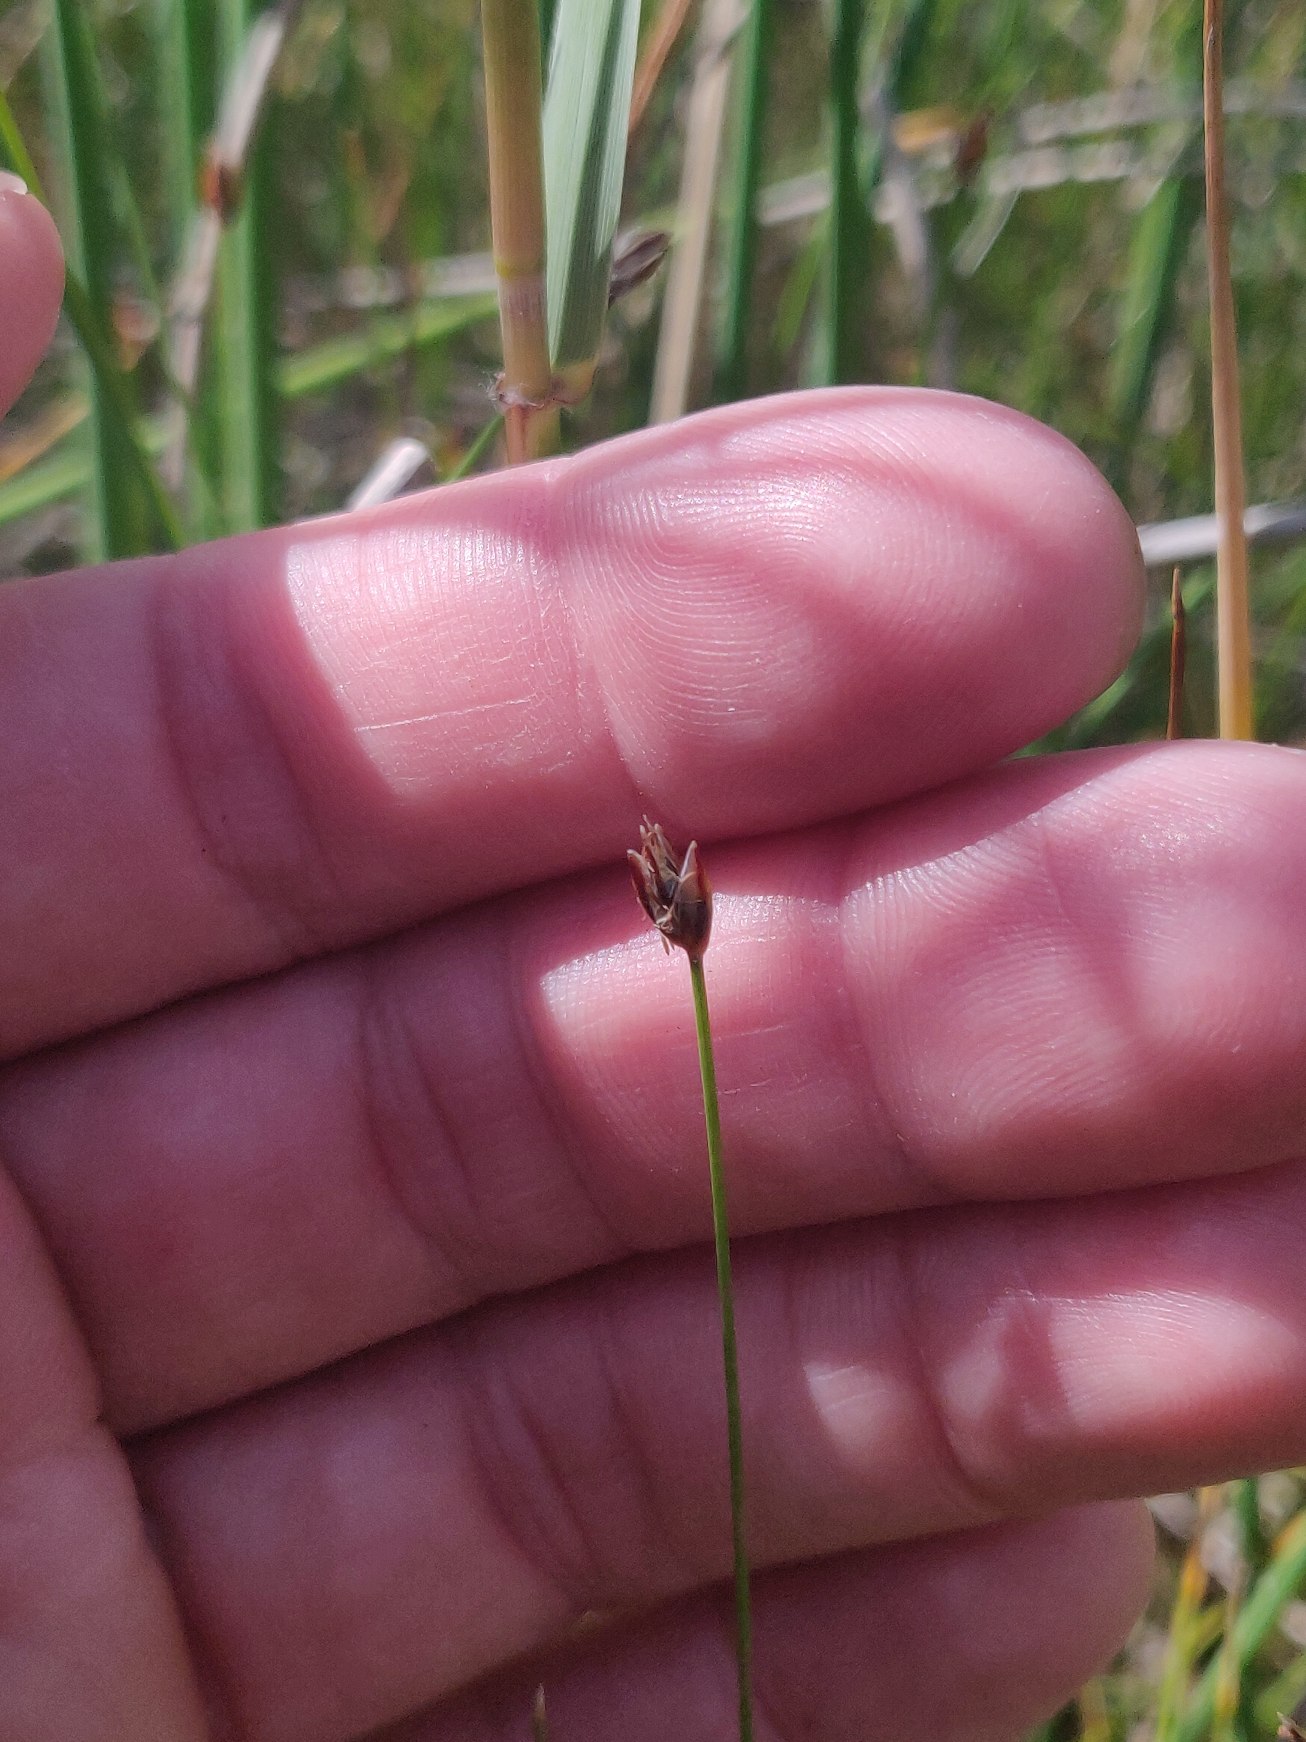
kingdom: Plantae
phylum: Tracheophyta
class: Liliopsida
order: Poales
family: Cyperaceae
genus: Eleocharis
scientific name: Eleocharis acicularis
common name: Nåle-sumpstrå
